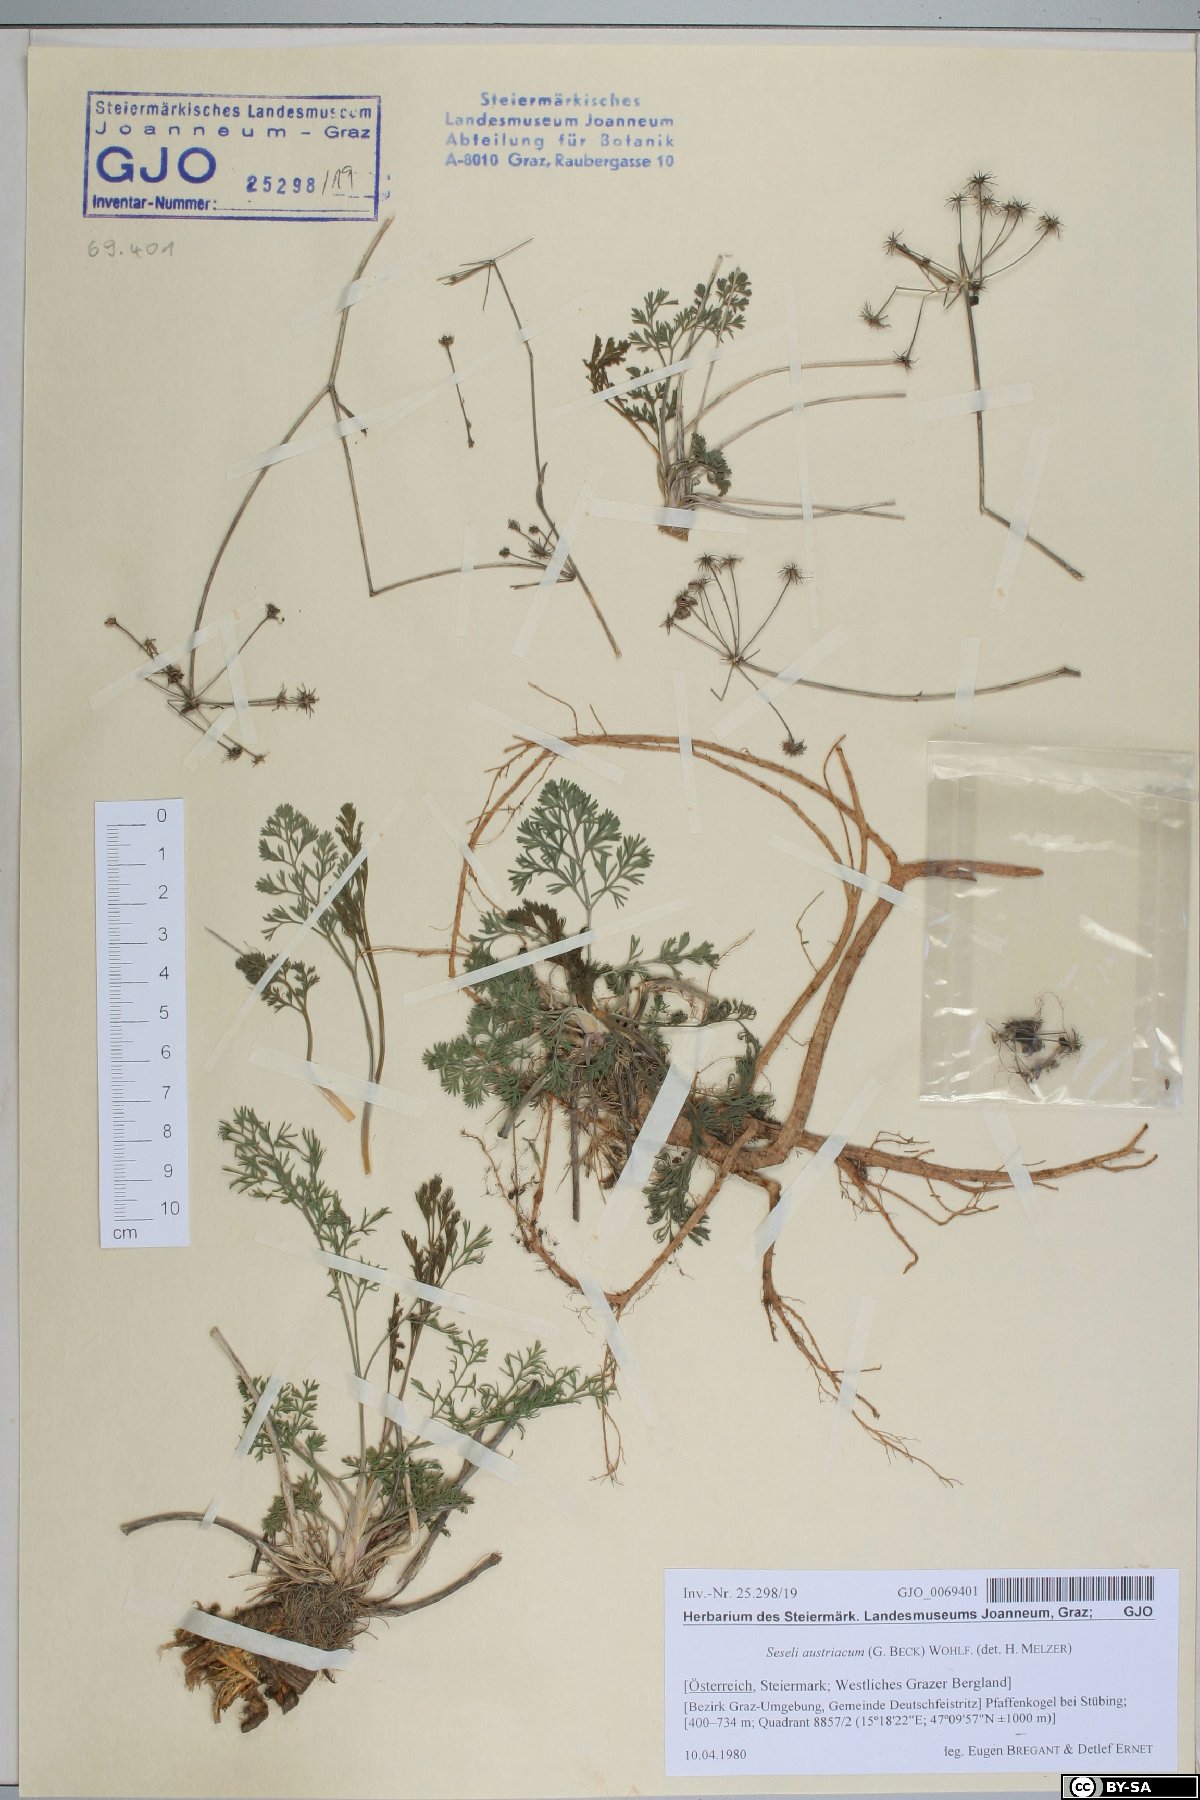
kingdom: Plantae
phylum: Tracheophyta
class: Magnoliopsida
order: Apiales
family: Apiaceae
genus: Seseli
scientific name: Seseli austriacum
